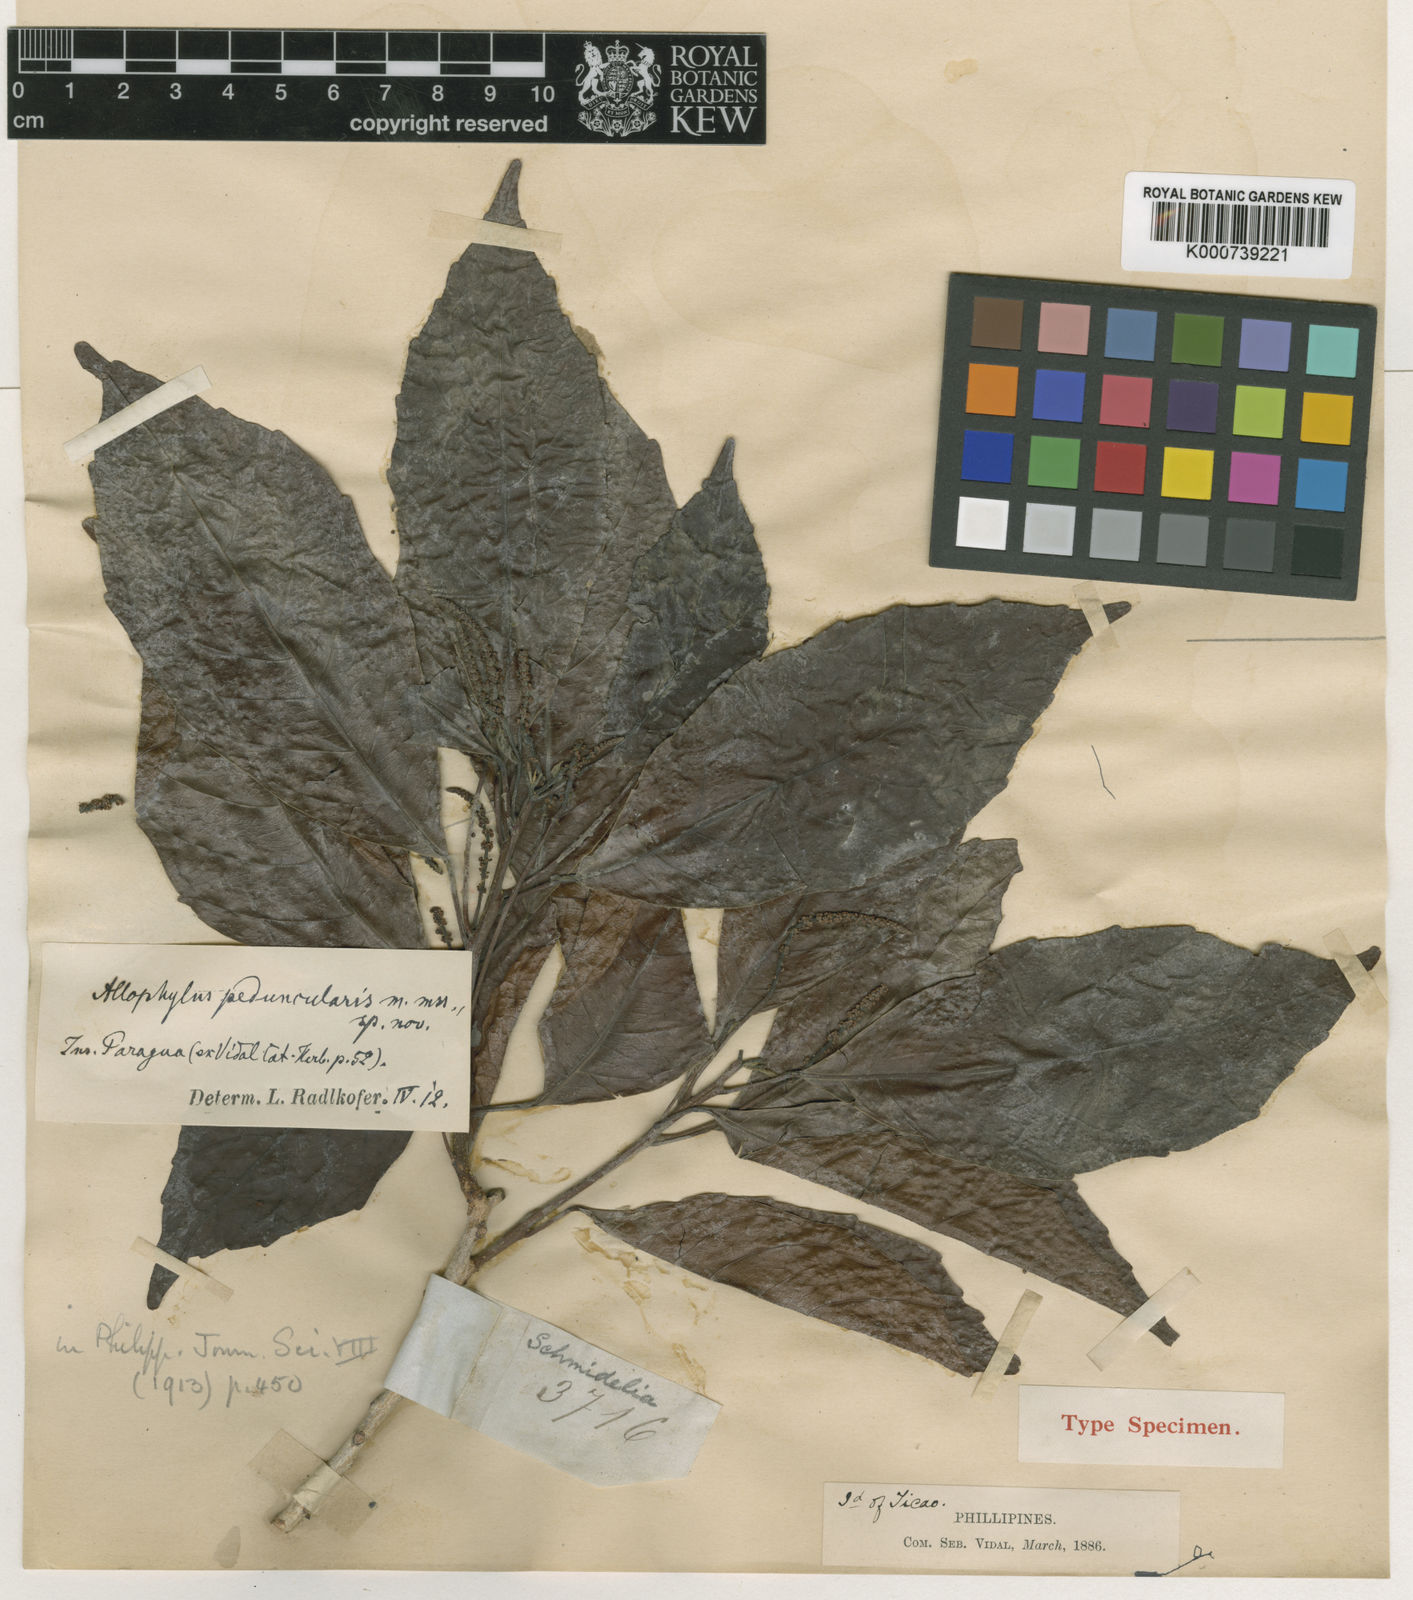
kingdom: Plantae
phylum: Tracheophyta
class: Magnoliopsida
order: Sapindales
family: Sapindaceae
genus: Allophylus
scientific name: Allophylus peduncularis
